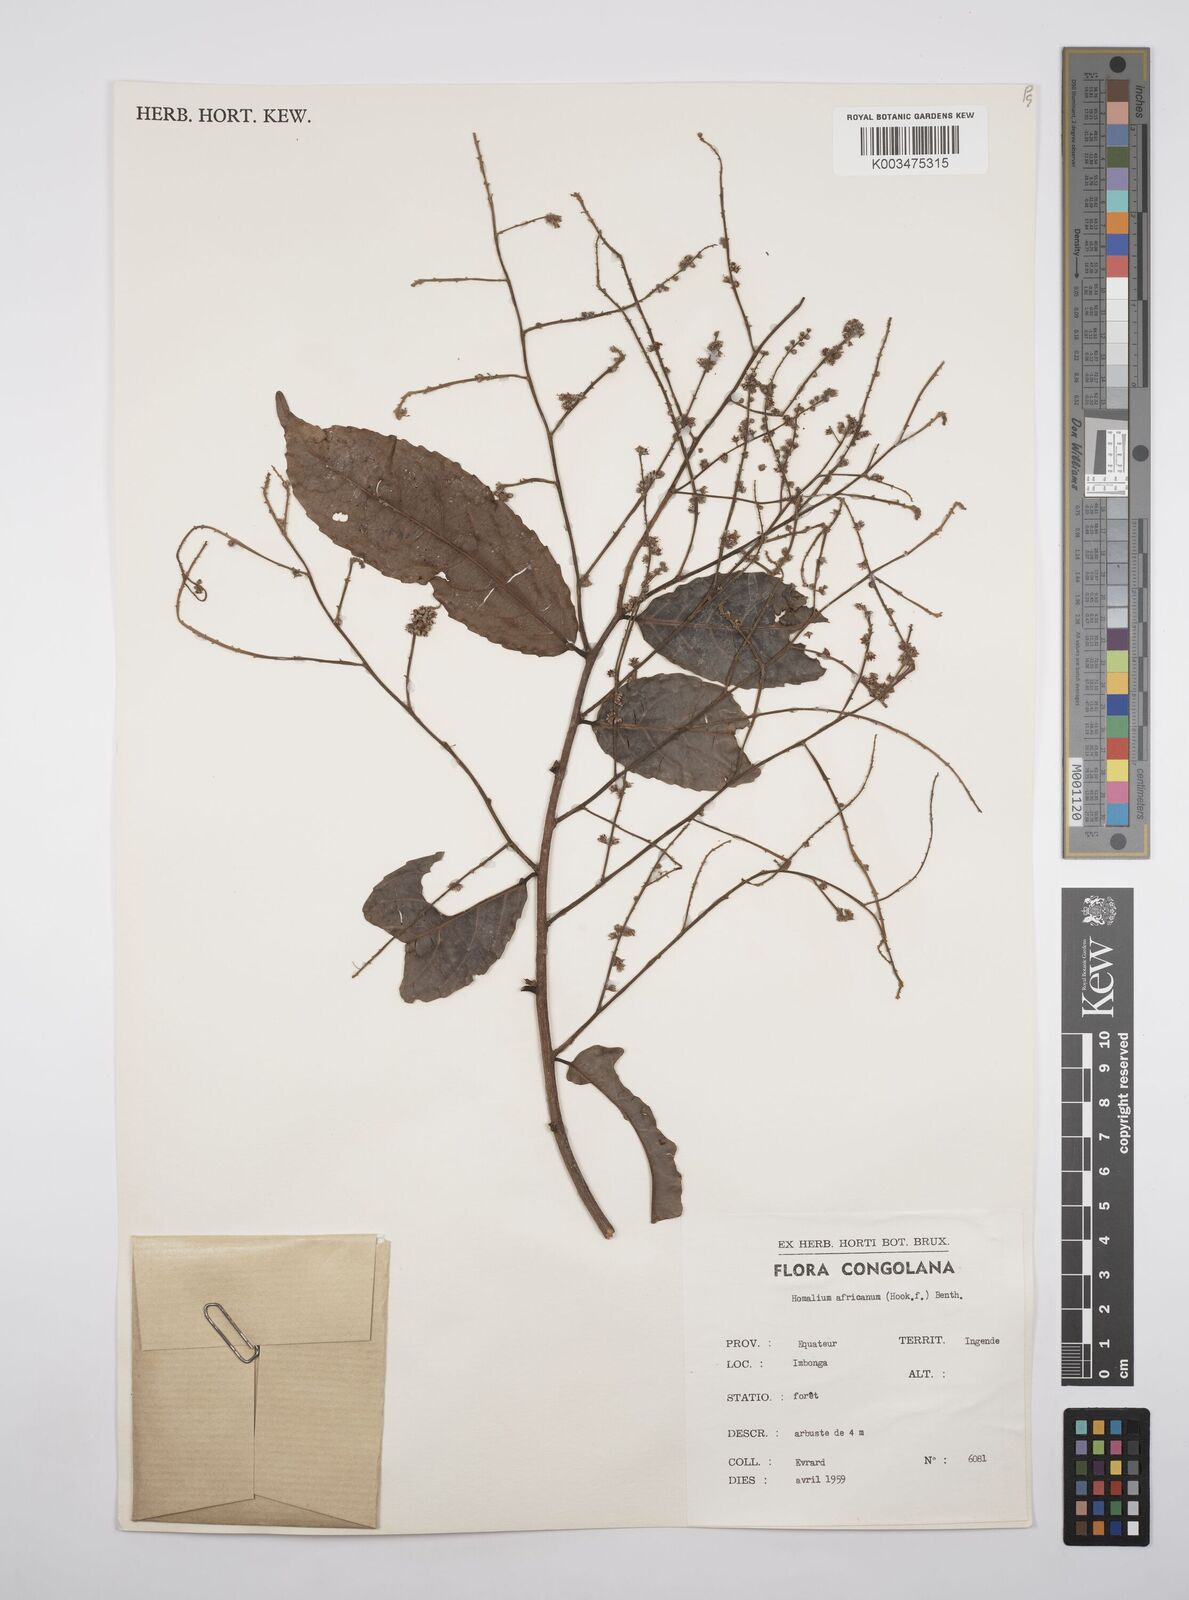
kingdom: Plantae
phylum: Tracheophyta
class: Magnoliopsida
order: Malpighiales
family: Salicaceae
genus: Homalium
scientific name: Homalium africanum
